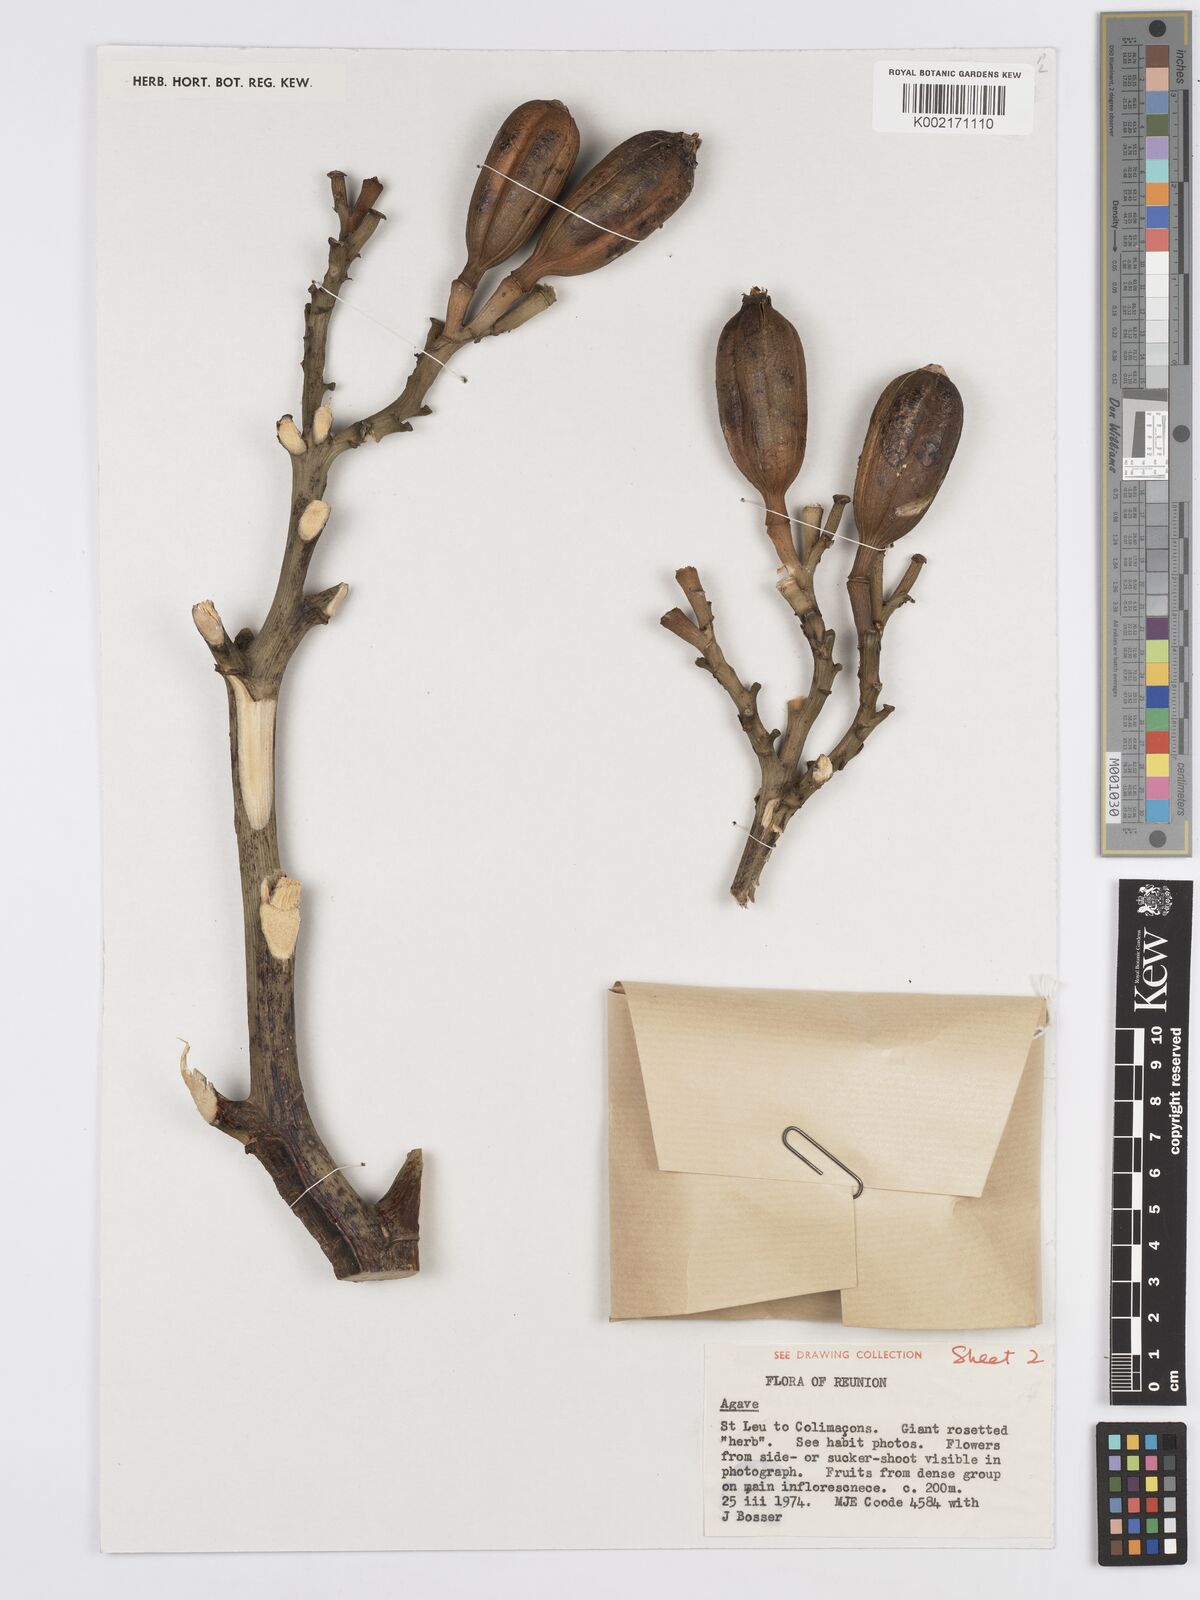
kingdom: Plantae
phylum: Tracheophyta
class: Liliopsida
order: Asparagales
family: Asparagaceae
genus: Agave
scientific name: Agave
